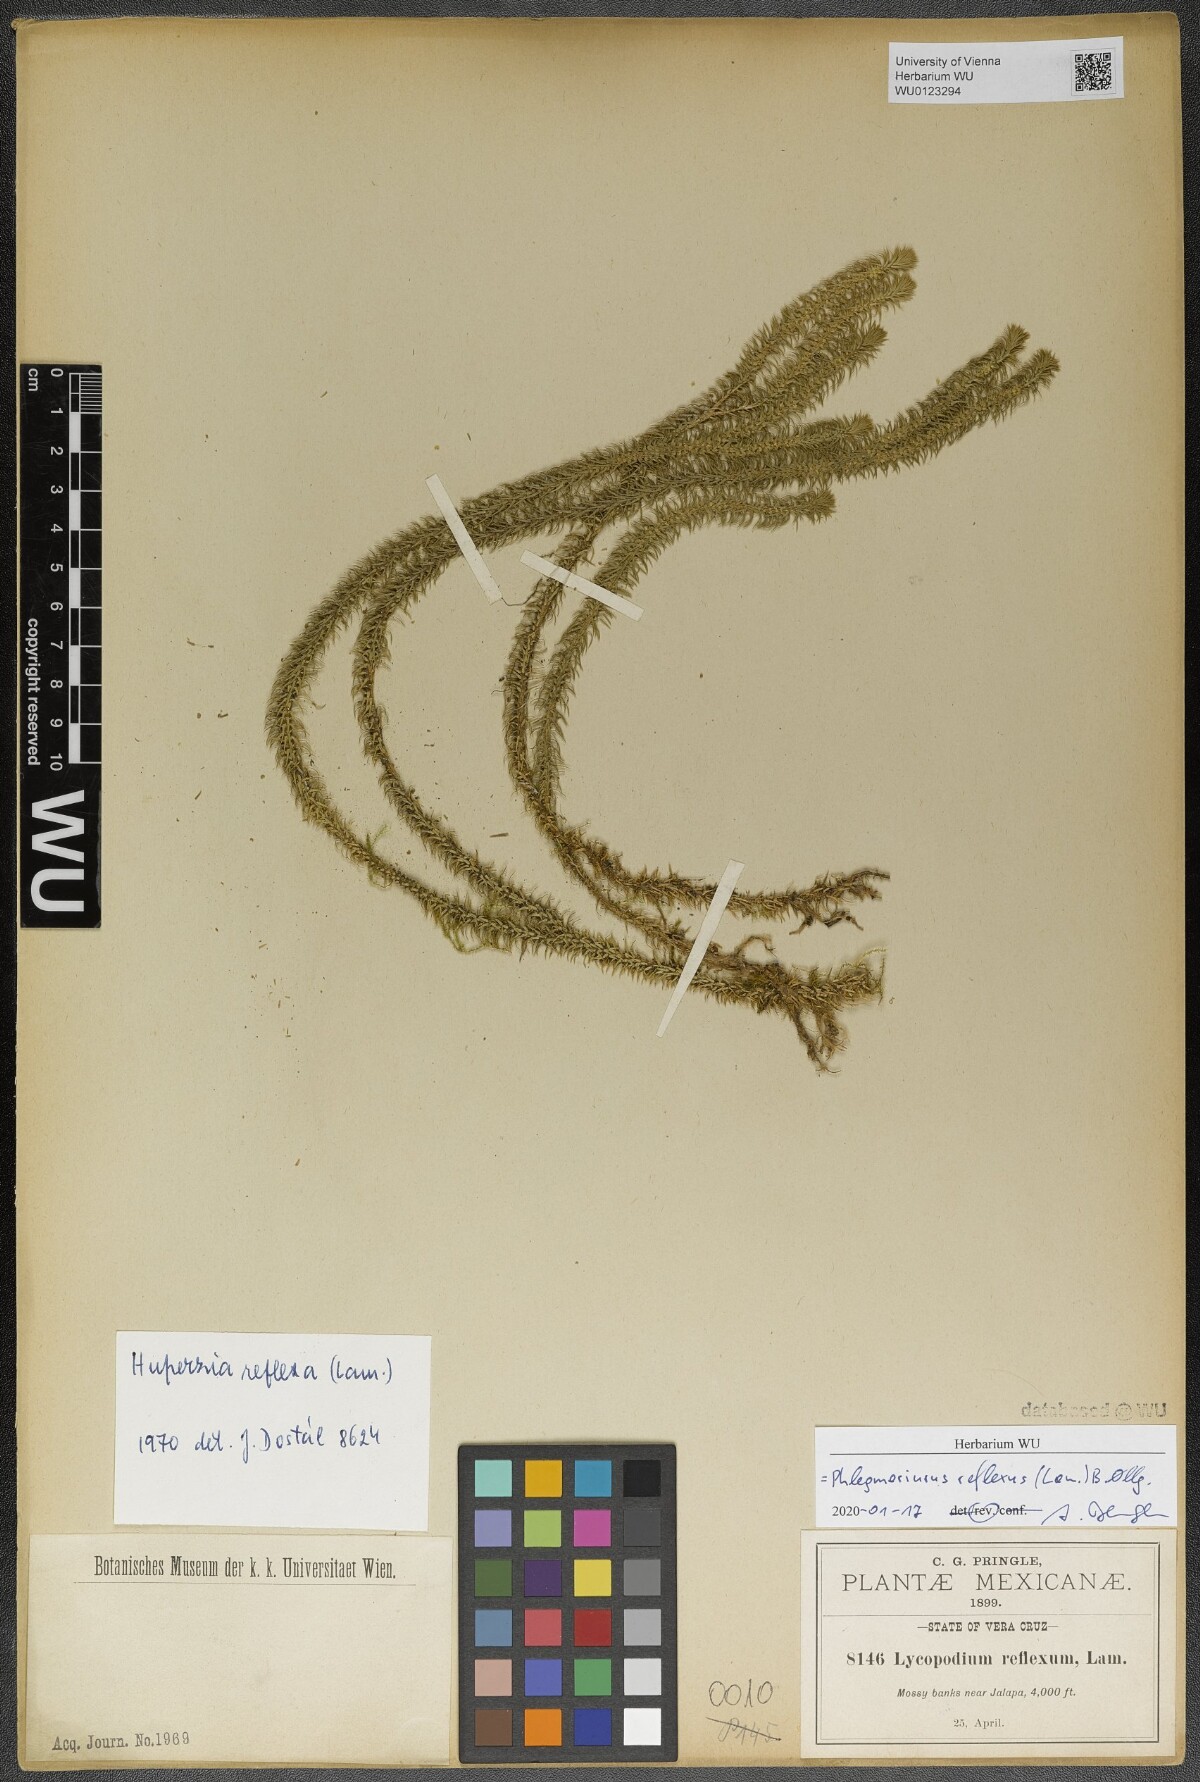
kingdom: Plantae
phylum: Tracheophyta
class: Lycopodiopsida
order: Lycopodiales
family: Lycopodiaceae
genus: Phlegmariurus
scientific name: Phlegmariurus reflexus
